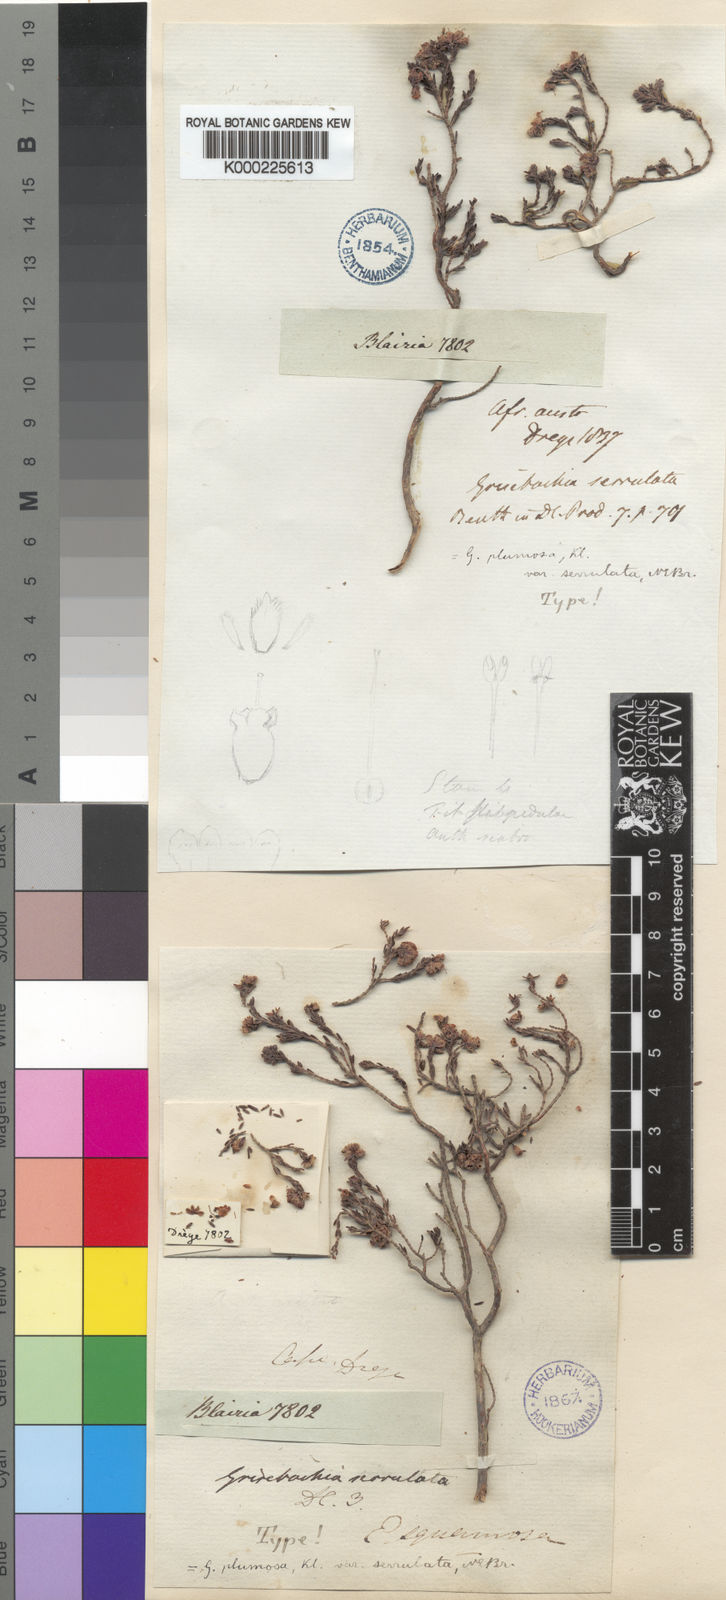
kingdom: Plantae
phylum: Tracheophyta
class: Magnoliopsida
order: Ericales
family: Ericaceae
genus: Erica
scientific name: Erica plumosa
